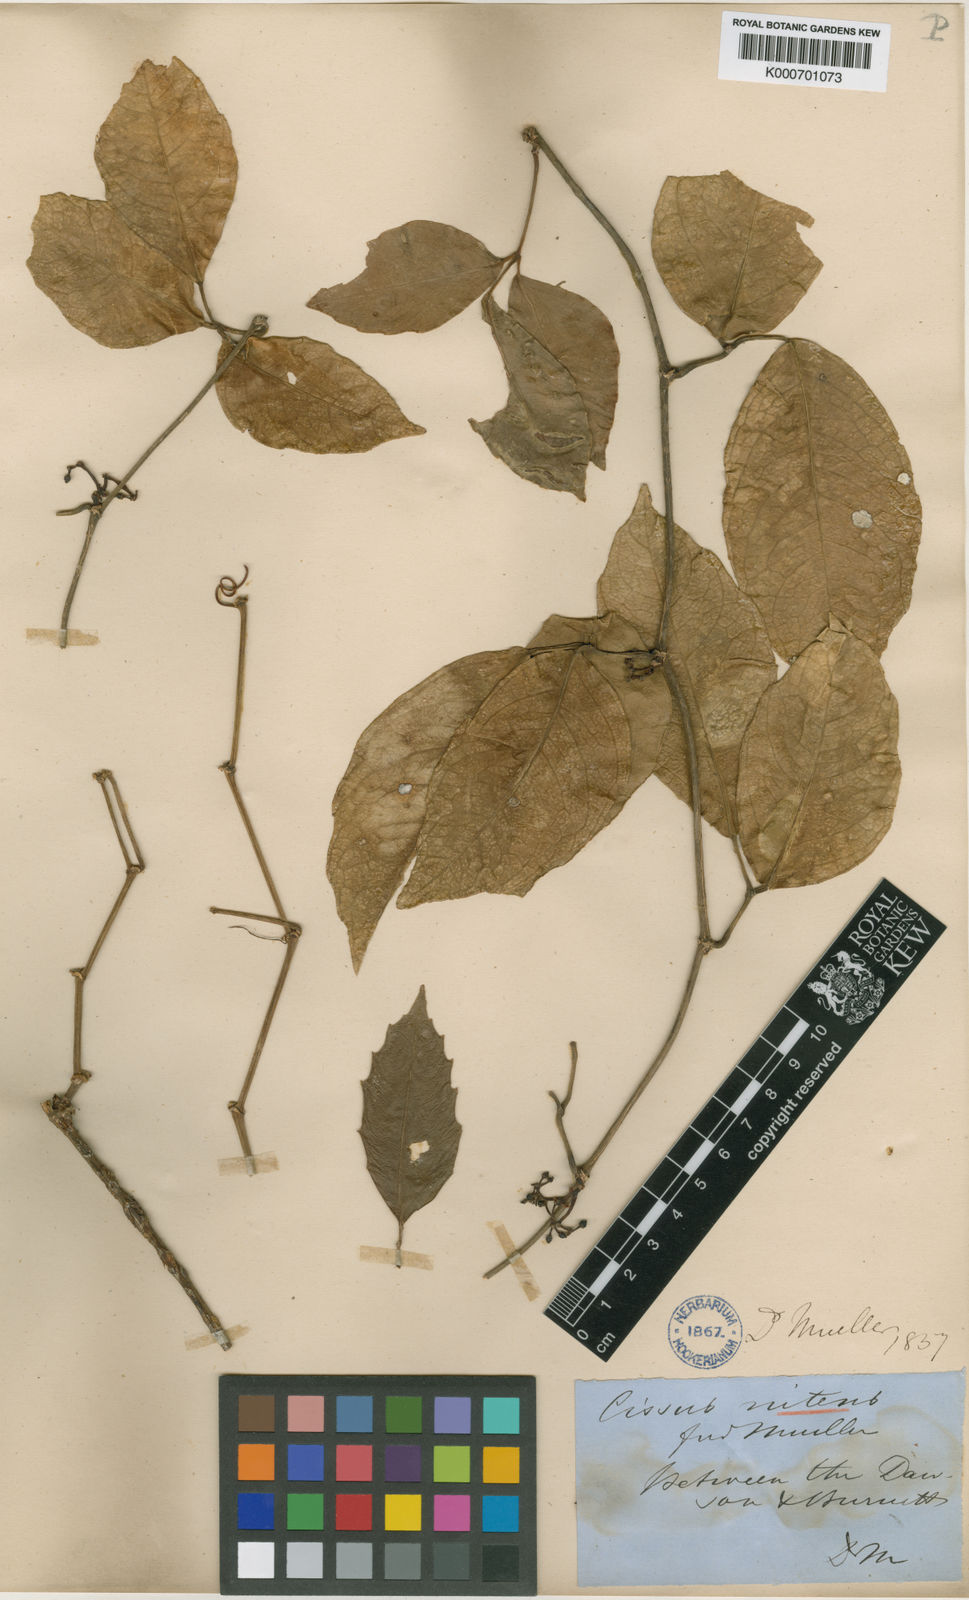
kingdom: Plantae
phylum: Tracheophyta
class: Magnoliopsida
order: Vitales
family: Vitaceae
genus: Tetrastigma
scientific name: Tetrastigma nitens
